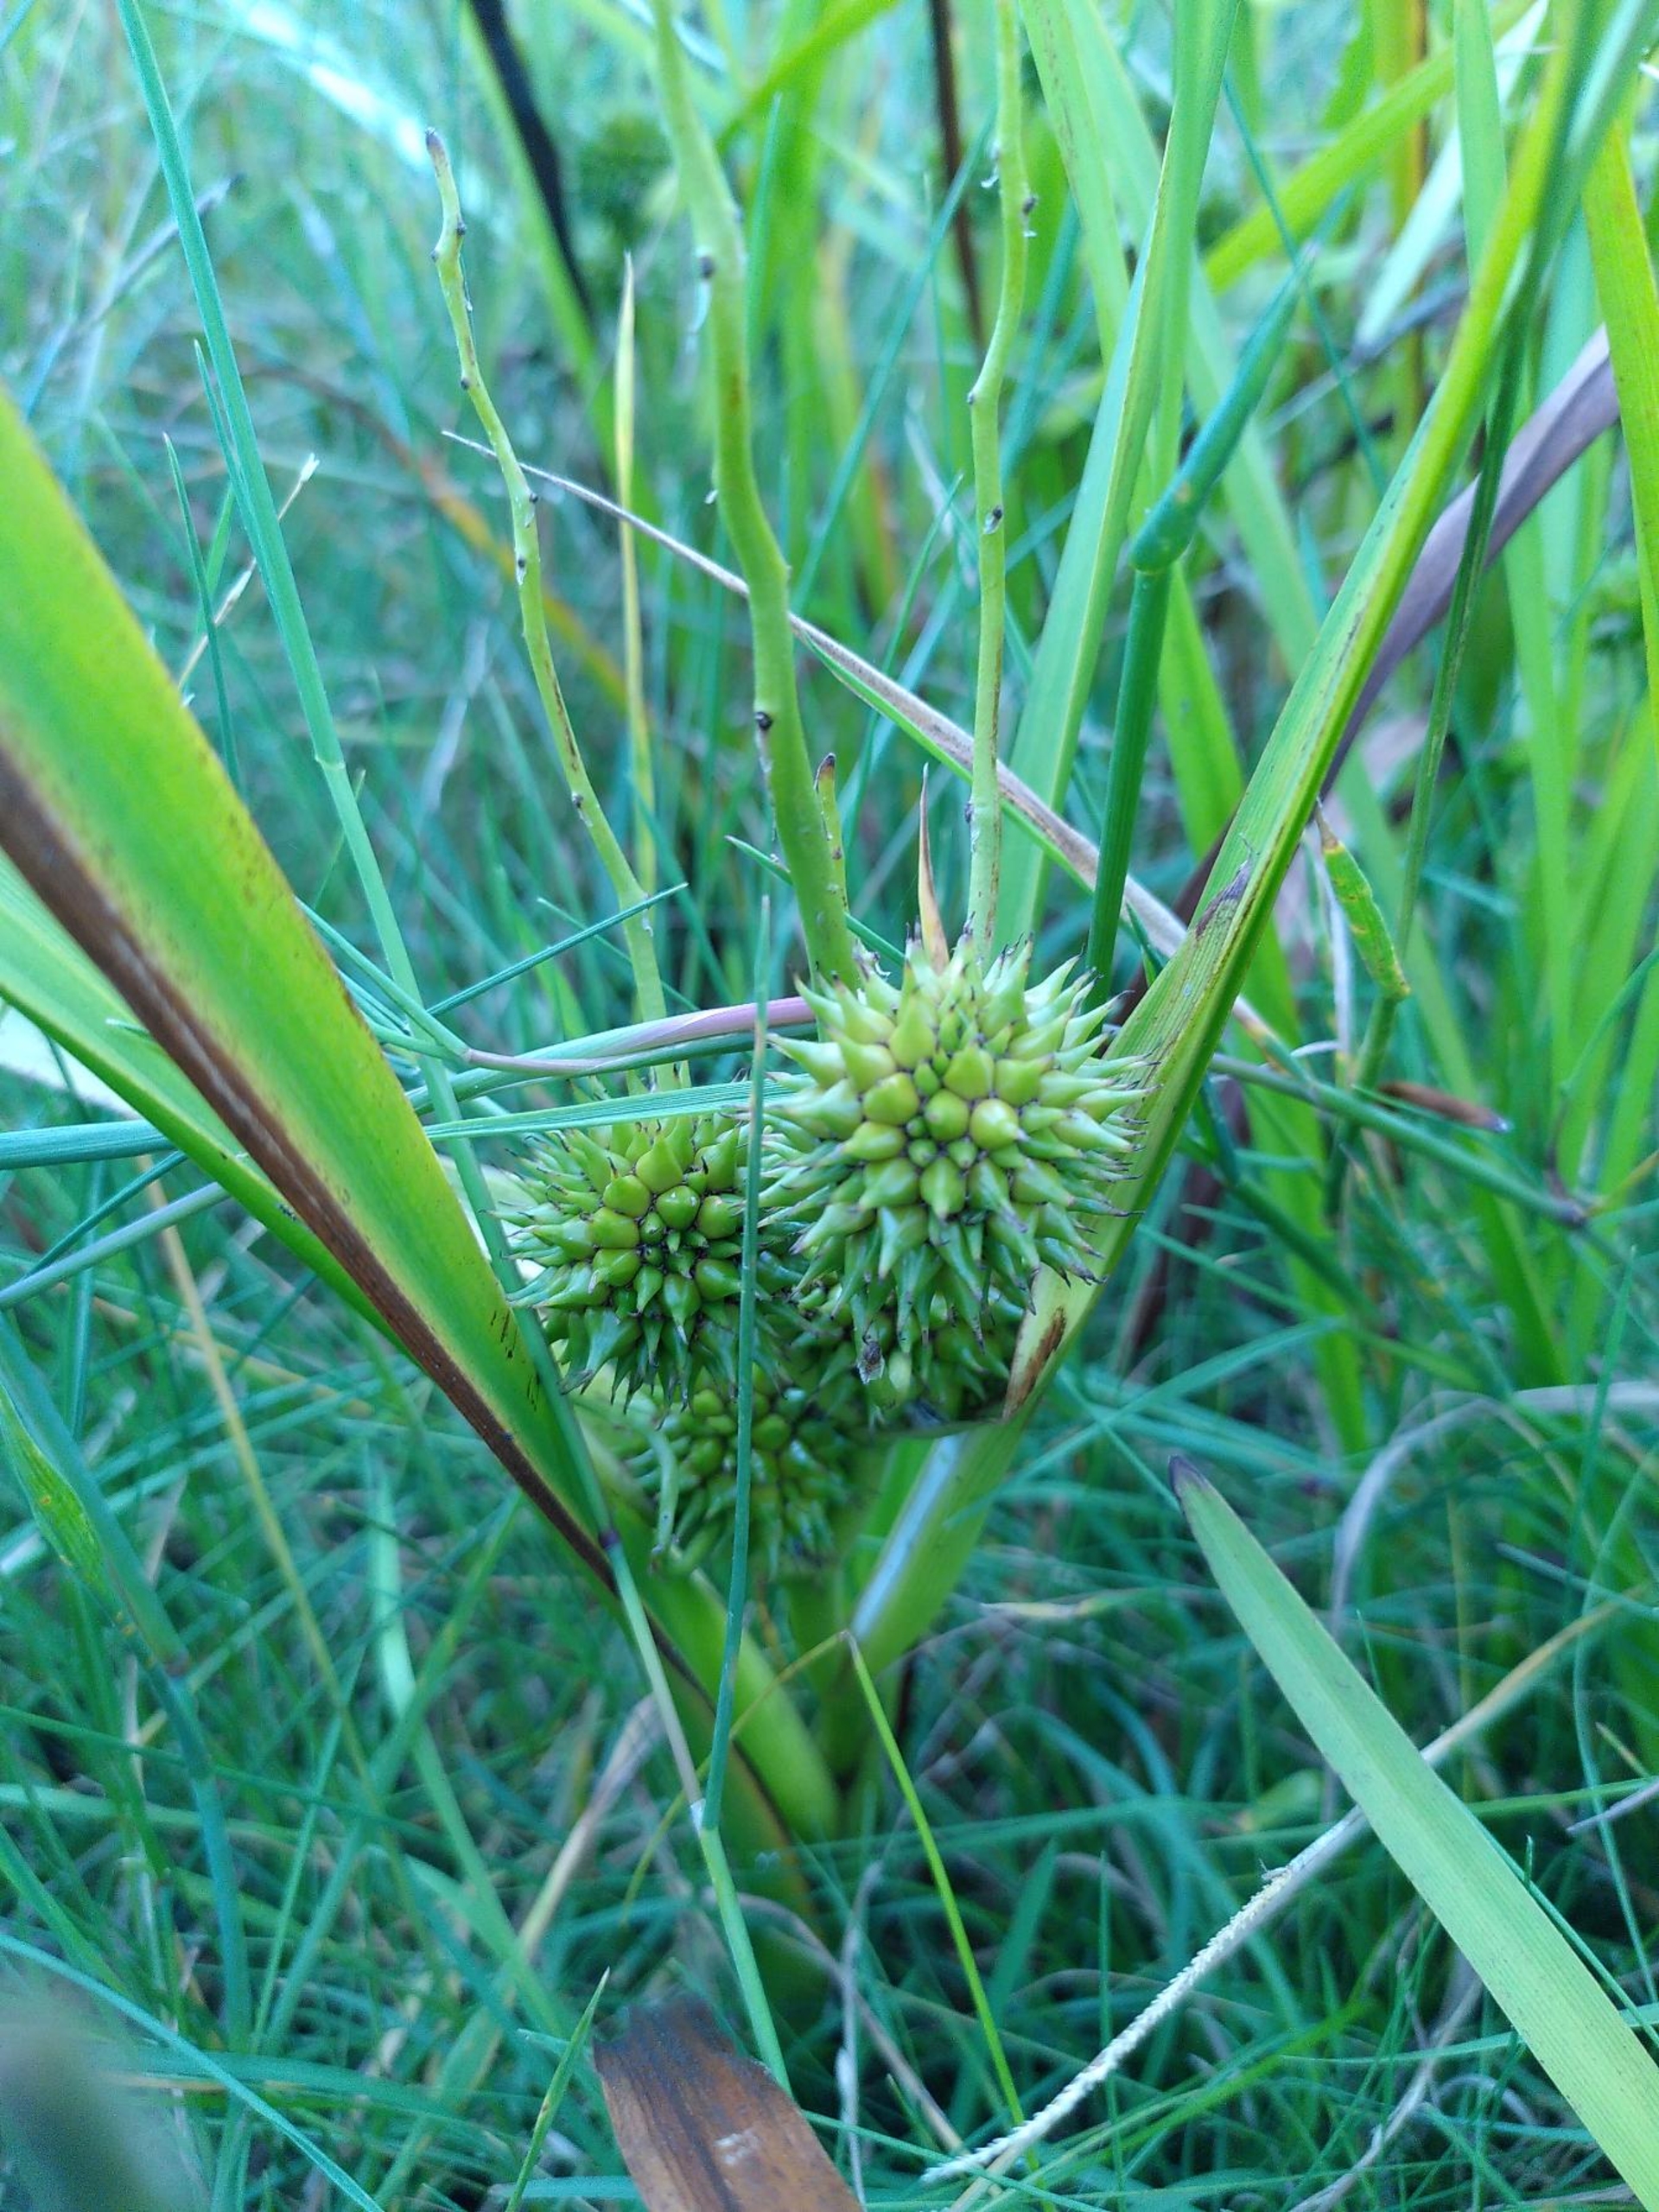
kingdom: Plantae
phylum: Tracheophyta
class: Liliopsida
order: Poales
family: Typhaceae
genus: Sparganium
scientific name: Sparganium erectum
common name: Grenet pindsvineknop
